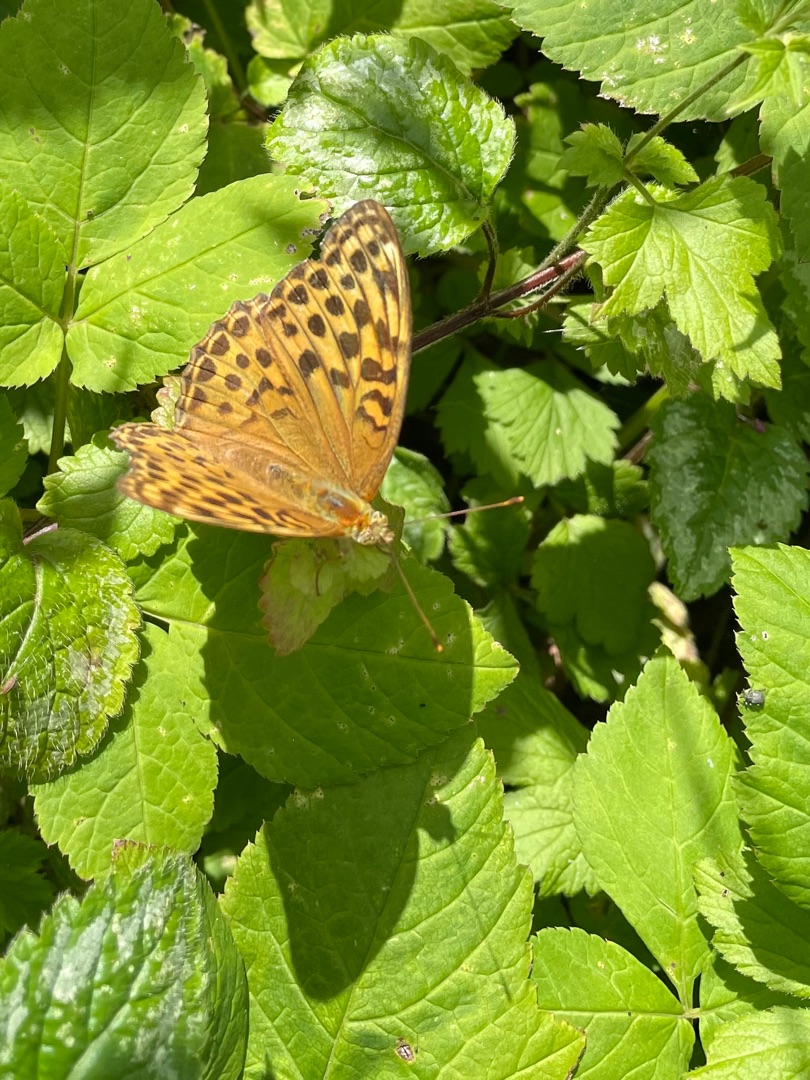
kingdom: Animalia
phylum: Arthropoda
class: Insecta
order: Lepidoptera
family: Nymphalidae
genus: Argynnis
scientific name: Argynnis paphia
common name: Kejserkåbe
